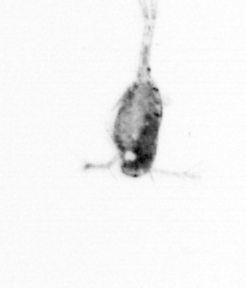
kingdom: Animalia
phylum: Arthropoda
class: Copepoda
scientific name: Copepoda
